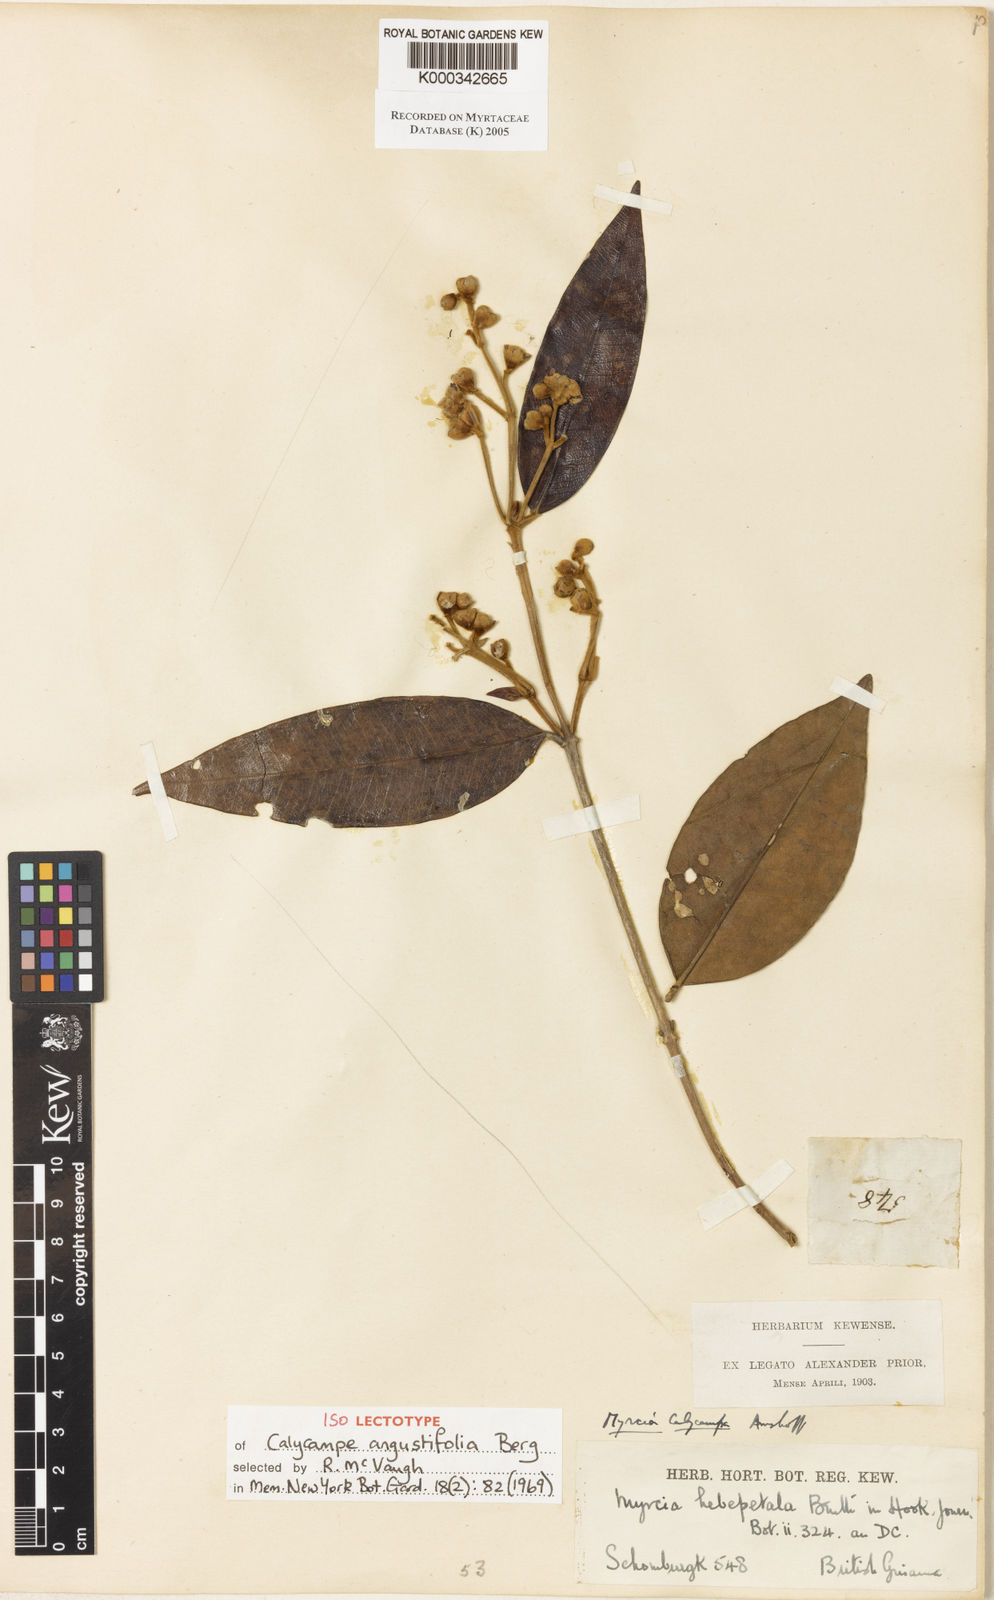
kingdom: Plantae
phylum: Tracheophyta
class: Magnoliopsida
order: Myrtales
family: Myrtaceae
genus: Myrcia
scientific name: Myrcia calycampa
